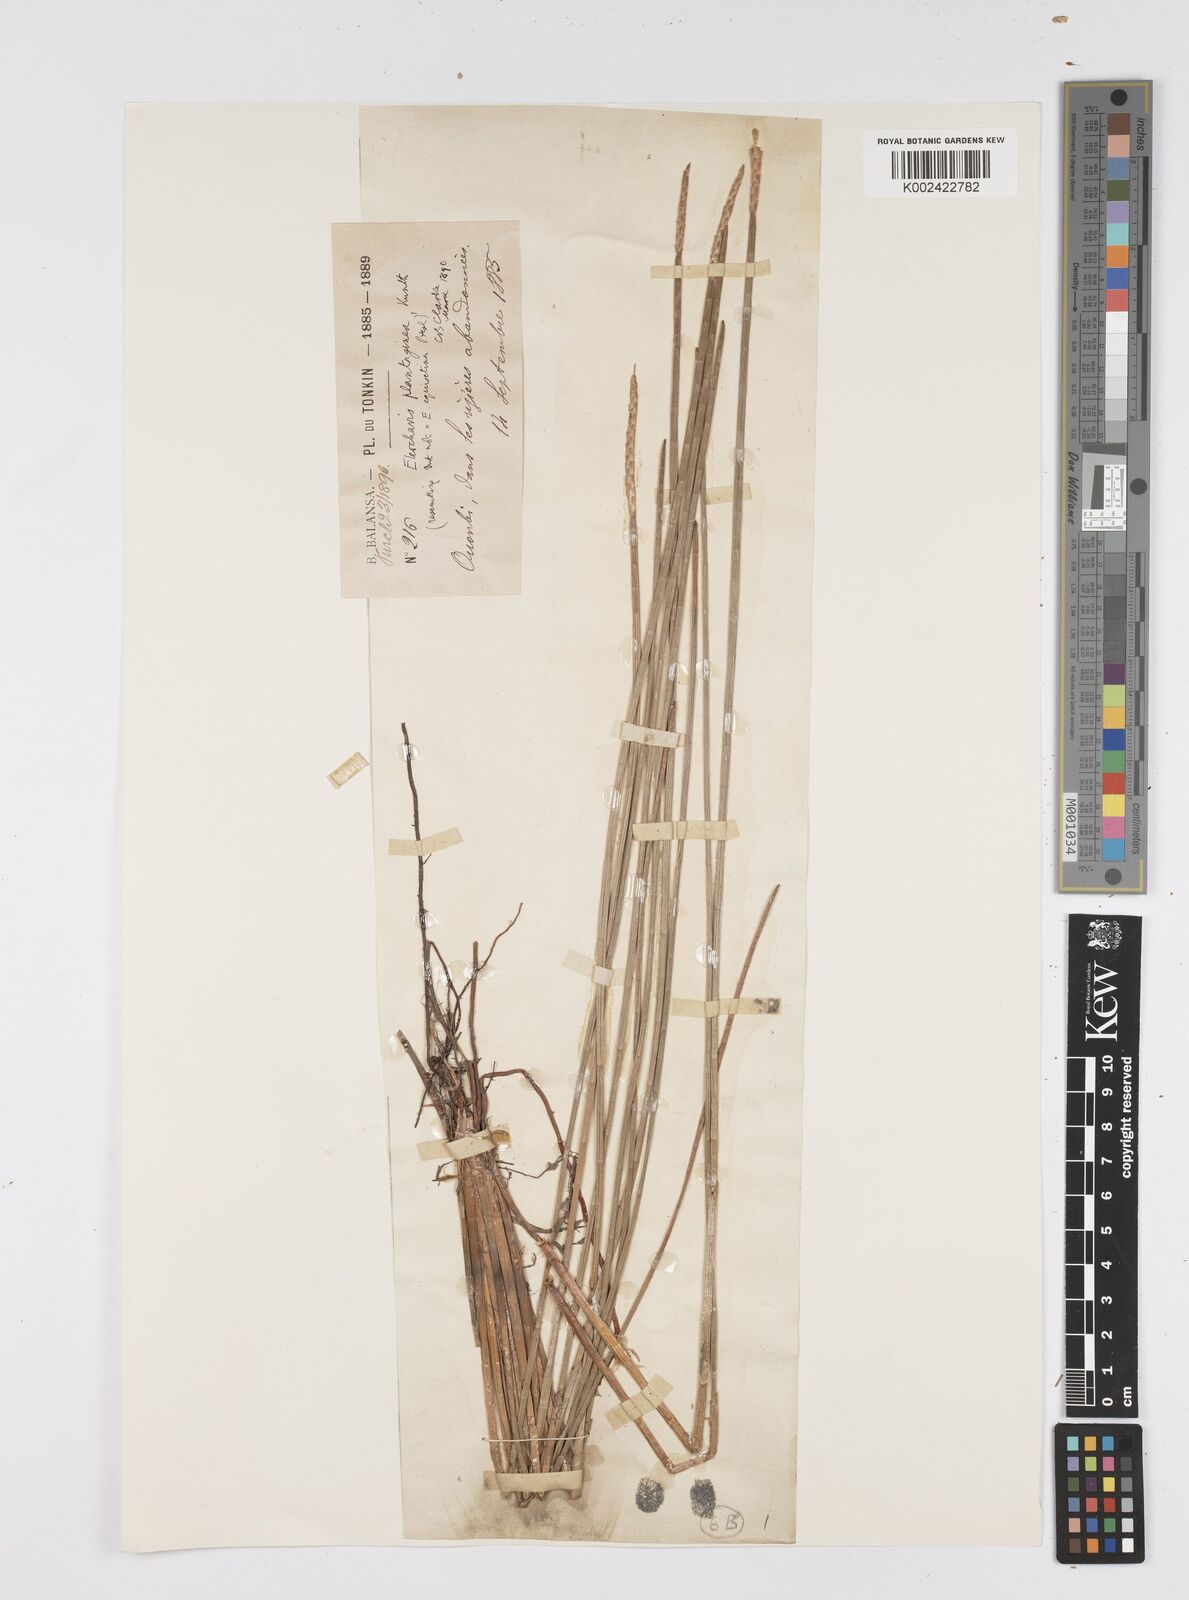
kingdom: Plantae
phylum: Tracheophyta
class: Liliopsida
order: Poales
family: Cyperaceae
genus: Eleocharis
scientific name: Eleocharis dulcis
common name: Chinese water chestnut
